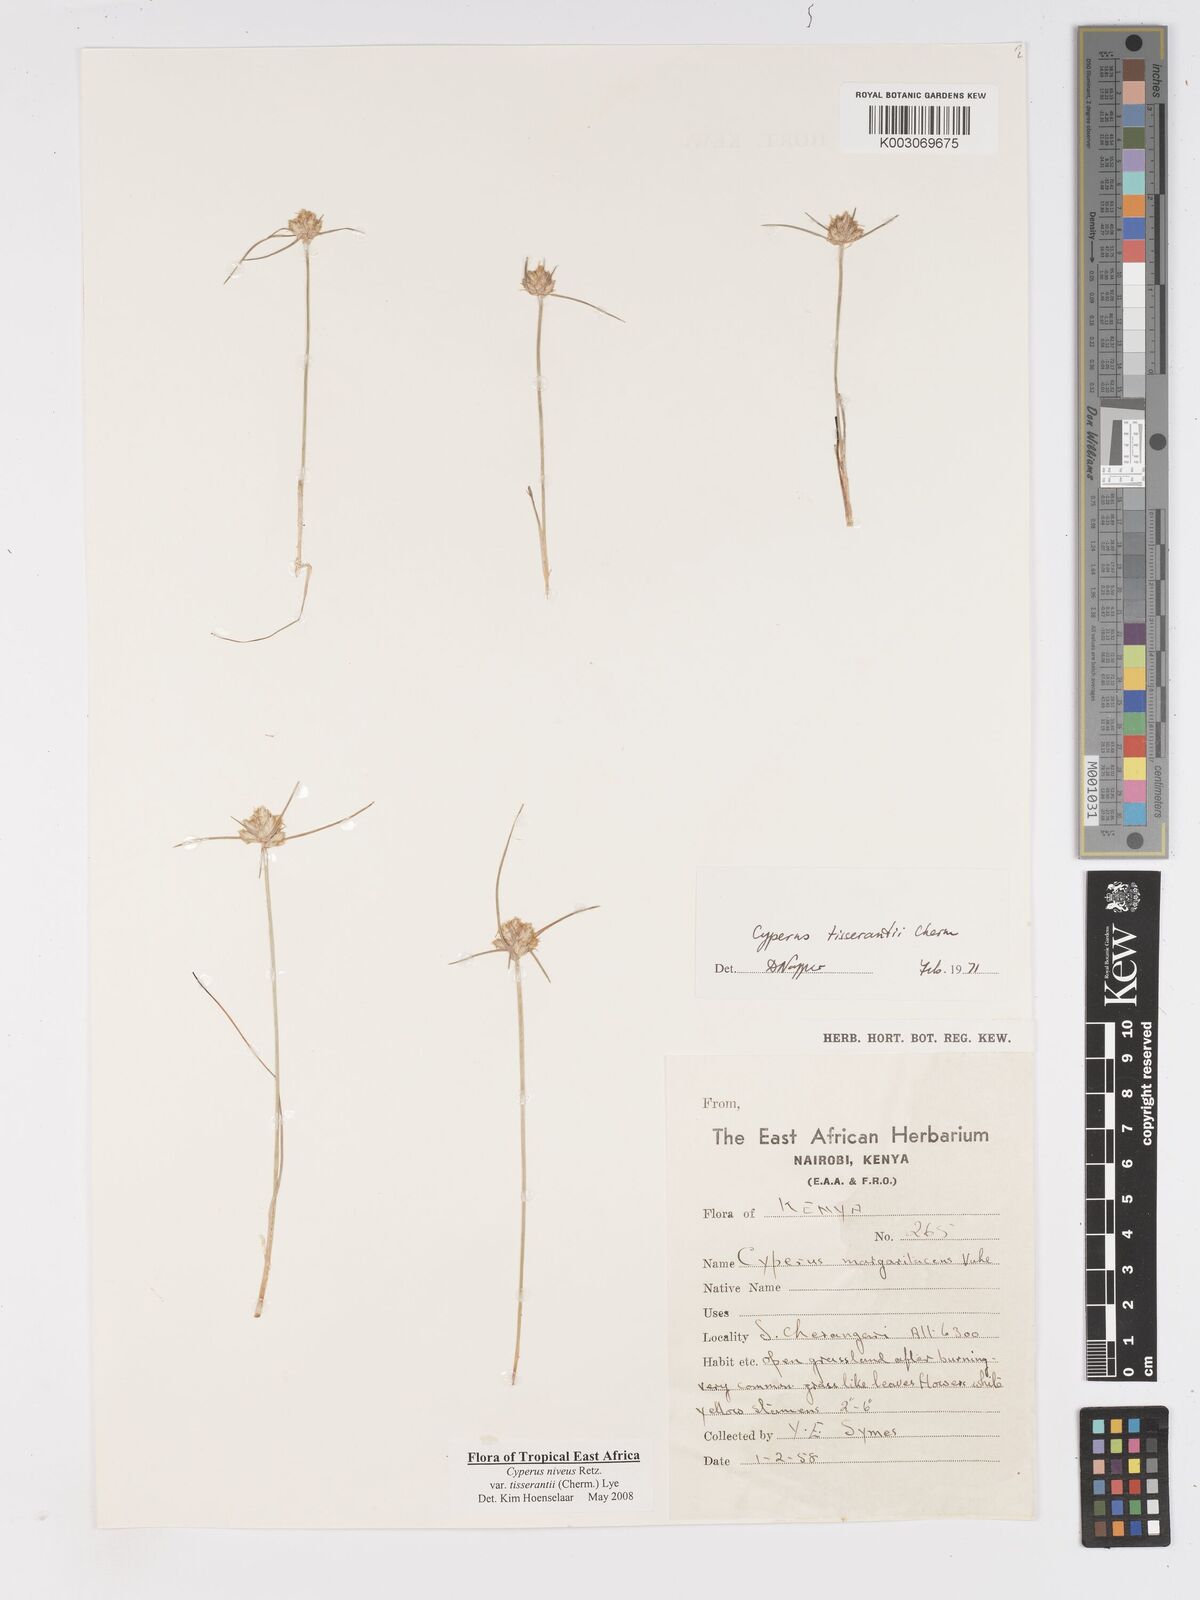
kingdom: Plantae
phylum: Tracheophyta
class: Liliopsida
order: Poales
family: Cyperaceae
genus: Cyperus
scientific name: Cyperus niveus
